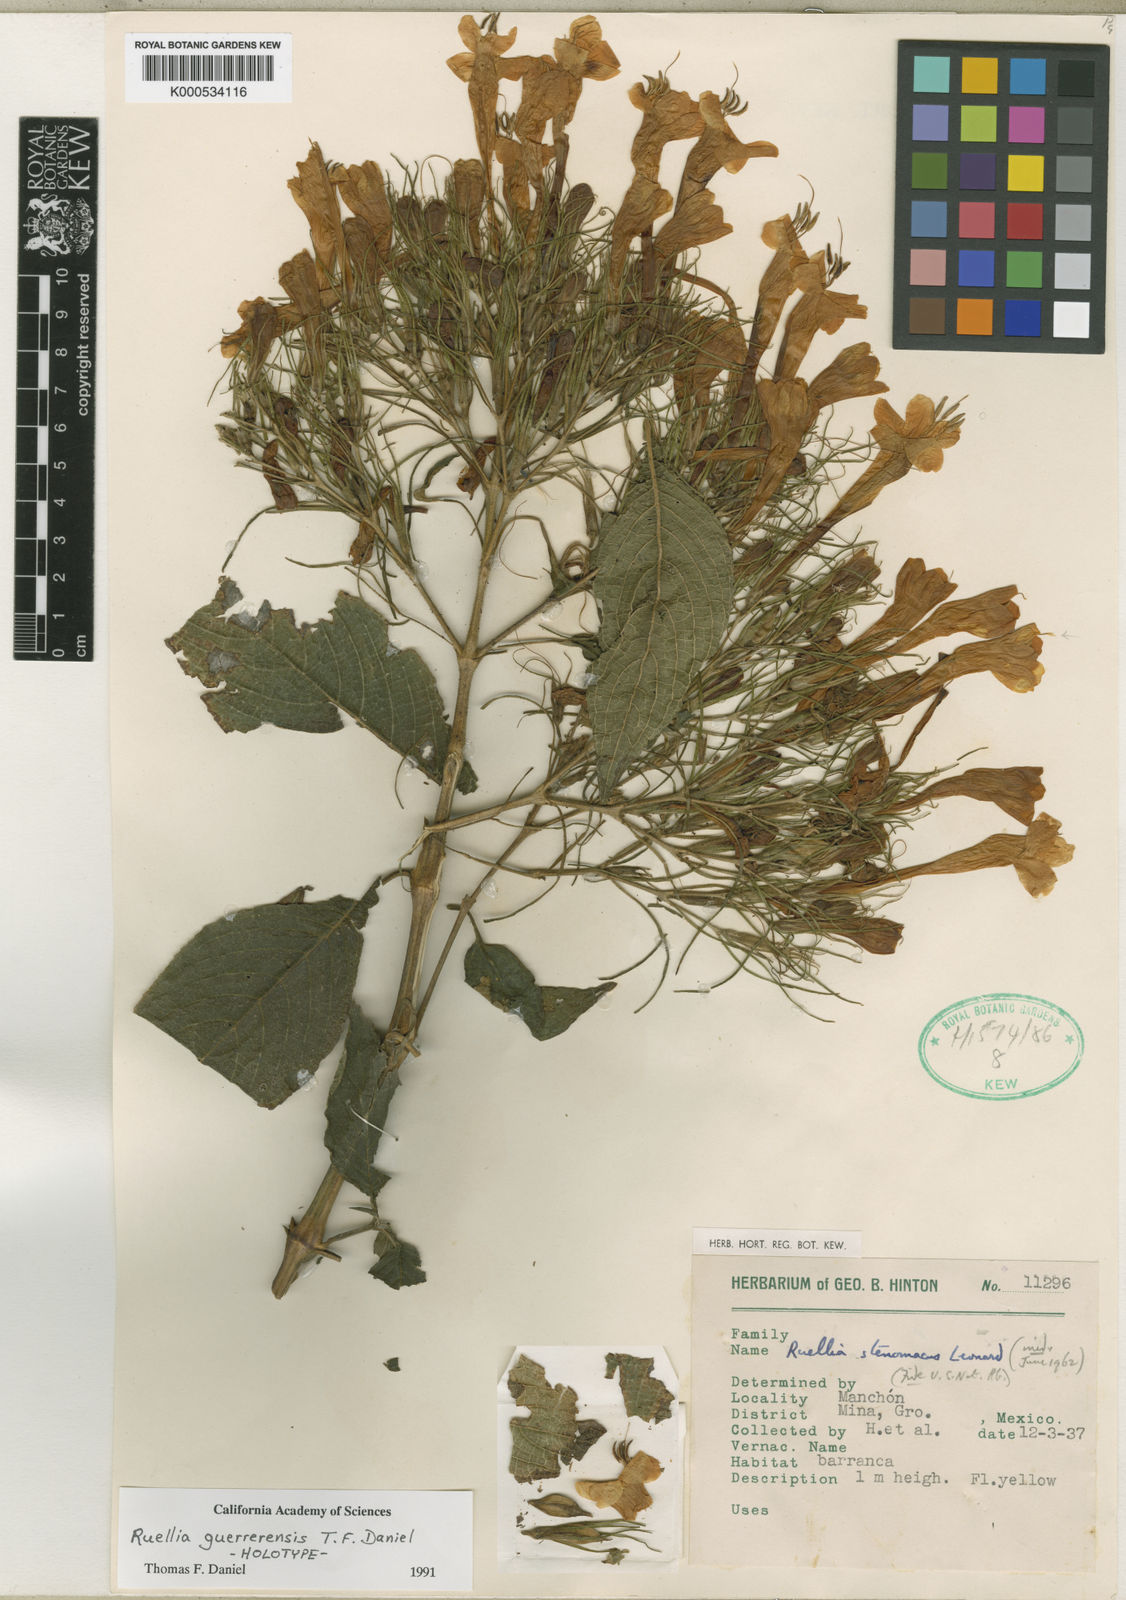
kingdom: Plantae
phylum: Tracheophyta
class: Magnoliopsida
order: Lamiales
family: Acanthaceae
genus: Ruellia
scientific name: Ruellia guerrerensis
